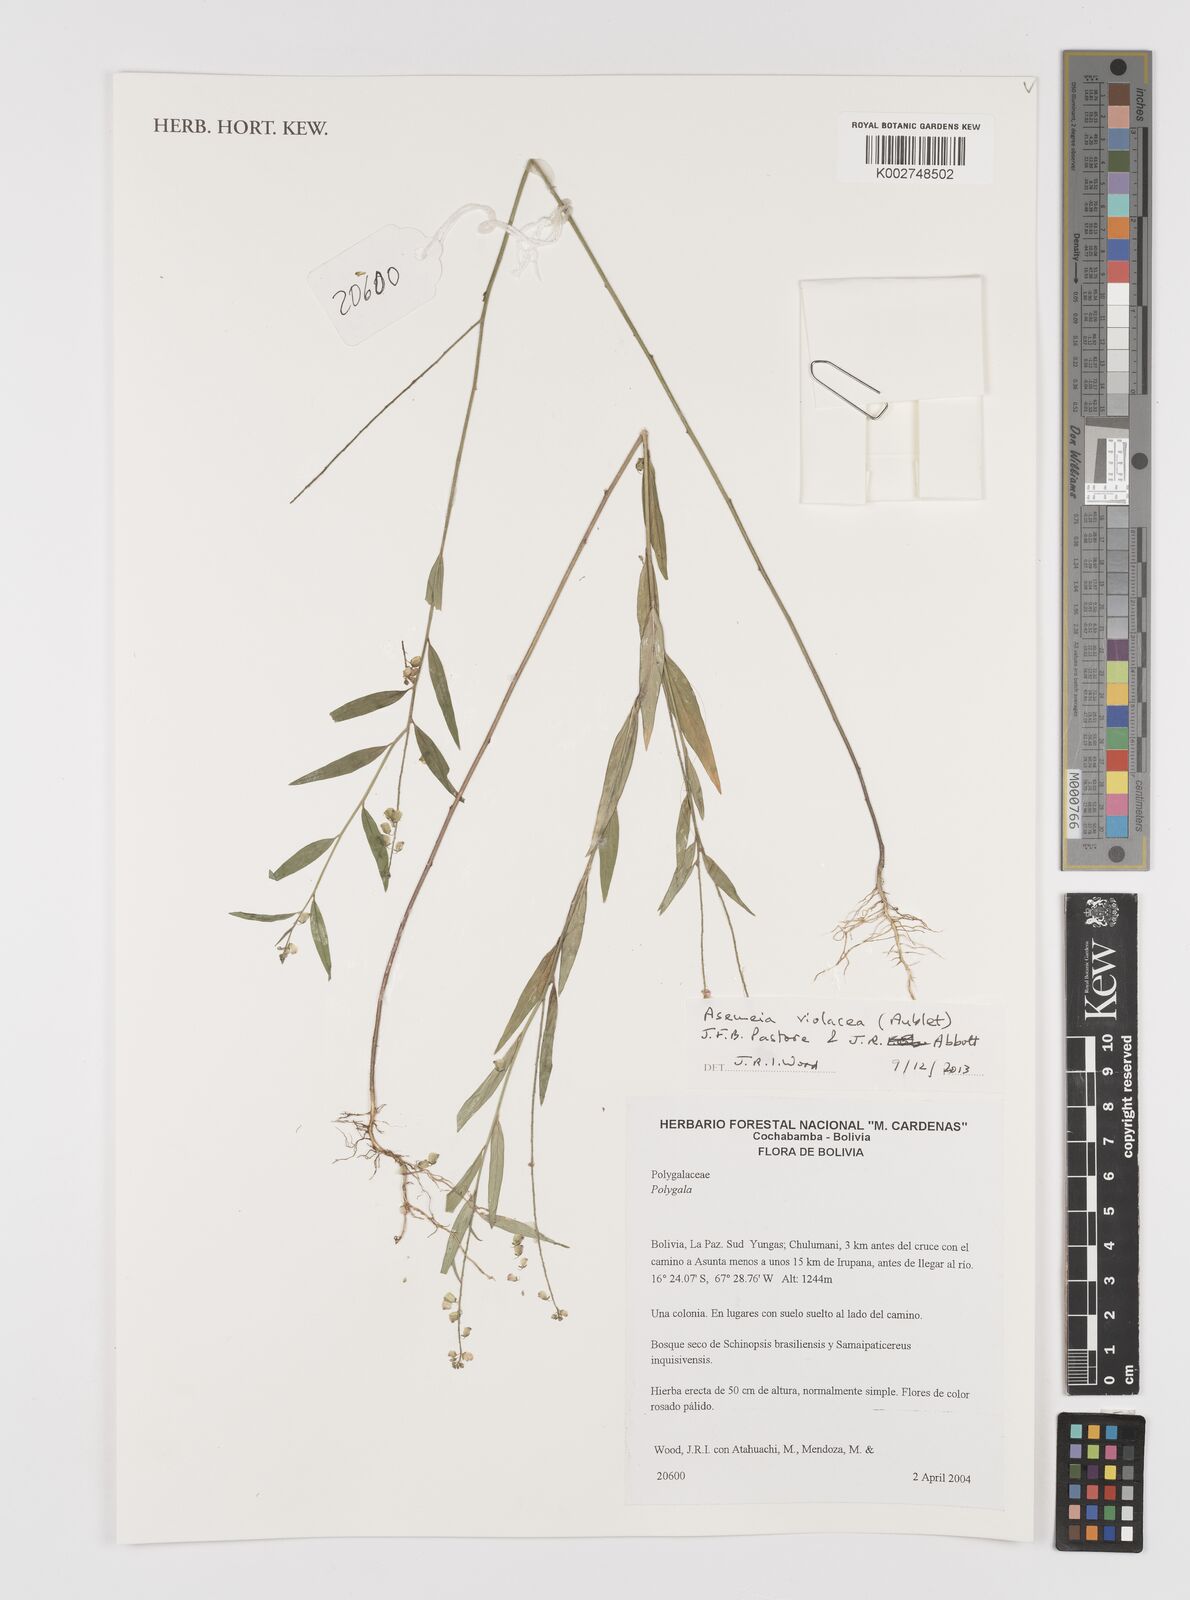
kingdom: Plantae
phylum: Tracheophyta
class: Magnoliopsida
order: Fabales
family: Polygalaceae
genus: Asemeia
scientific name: Asemeia violacea
